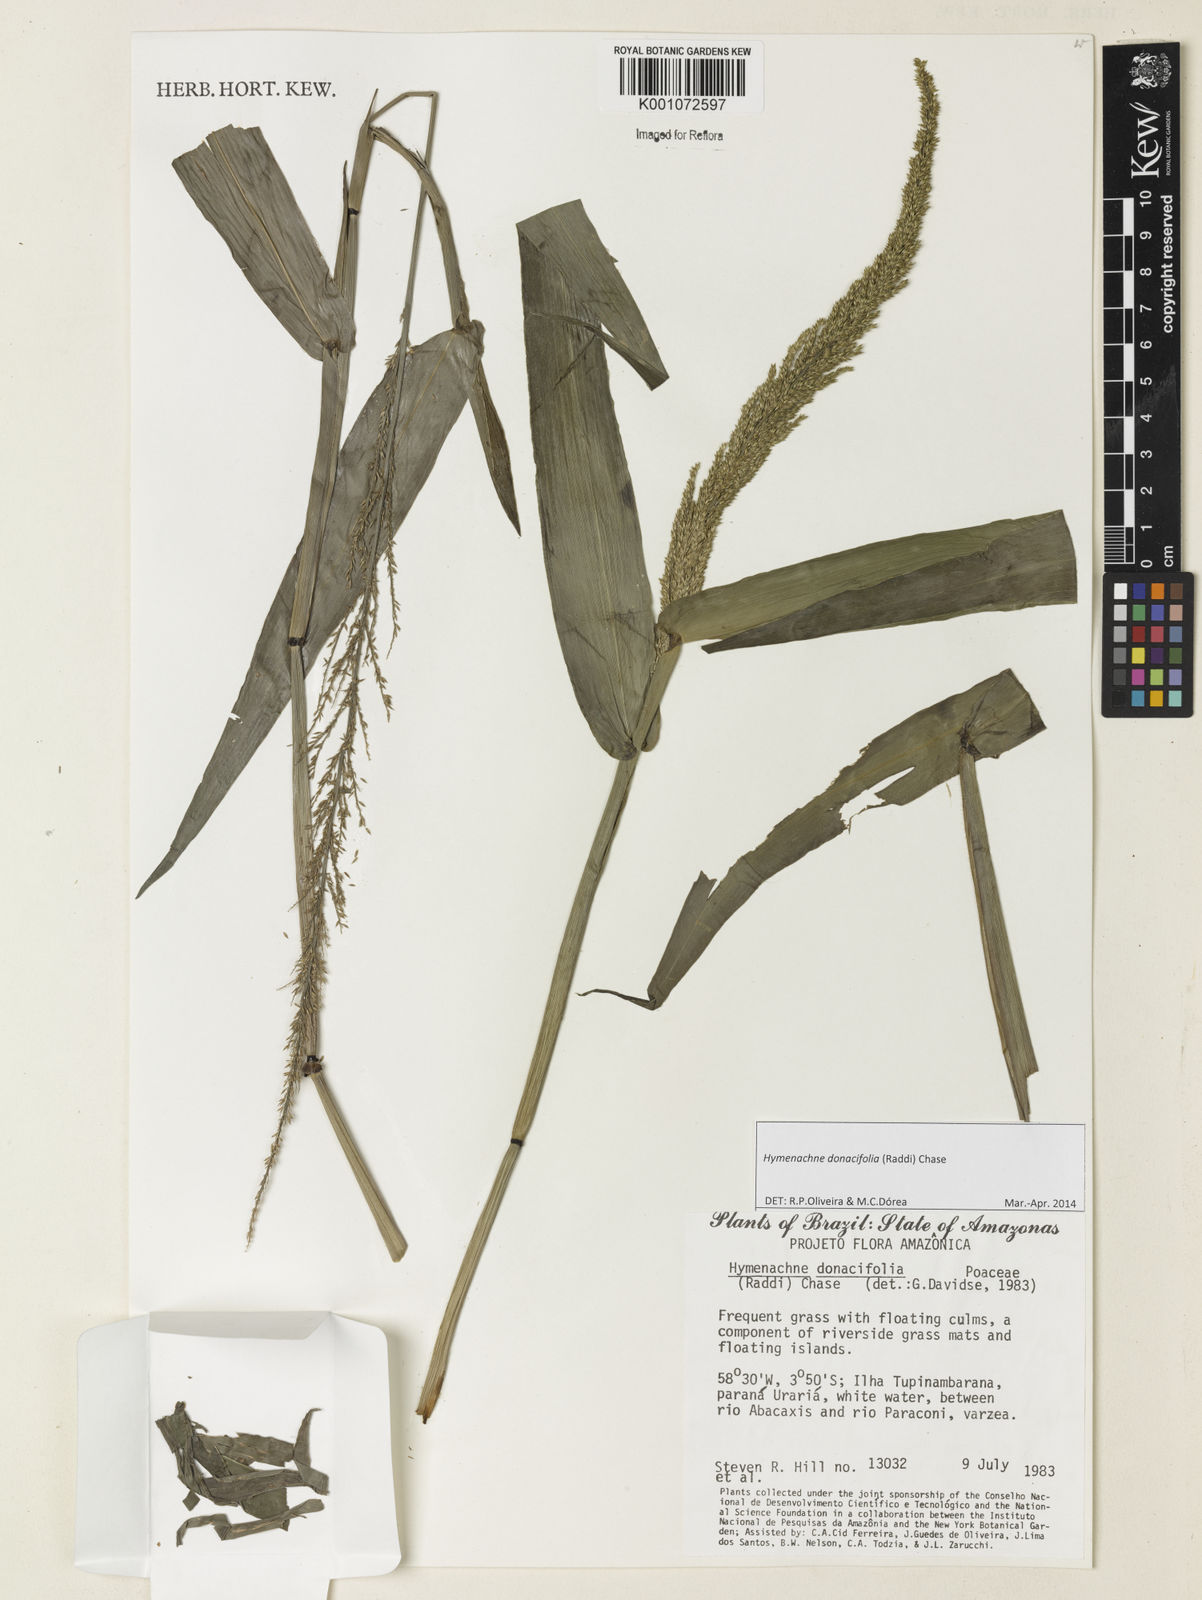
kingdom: Plantae
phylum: Tracheophyta
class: Liliopsida
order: Poales
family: Poaceae
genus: Hymenachne
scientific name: Hymenachne donacifolia
